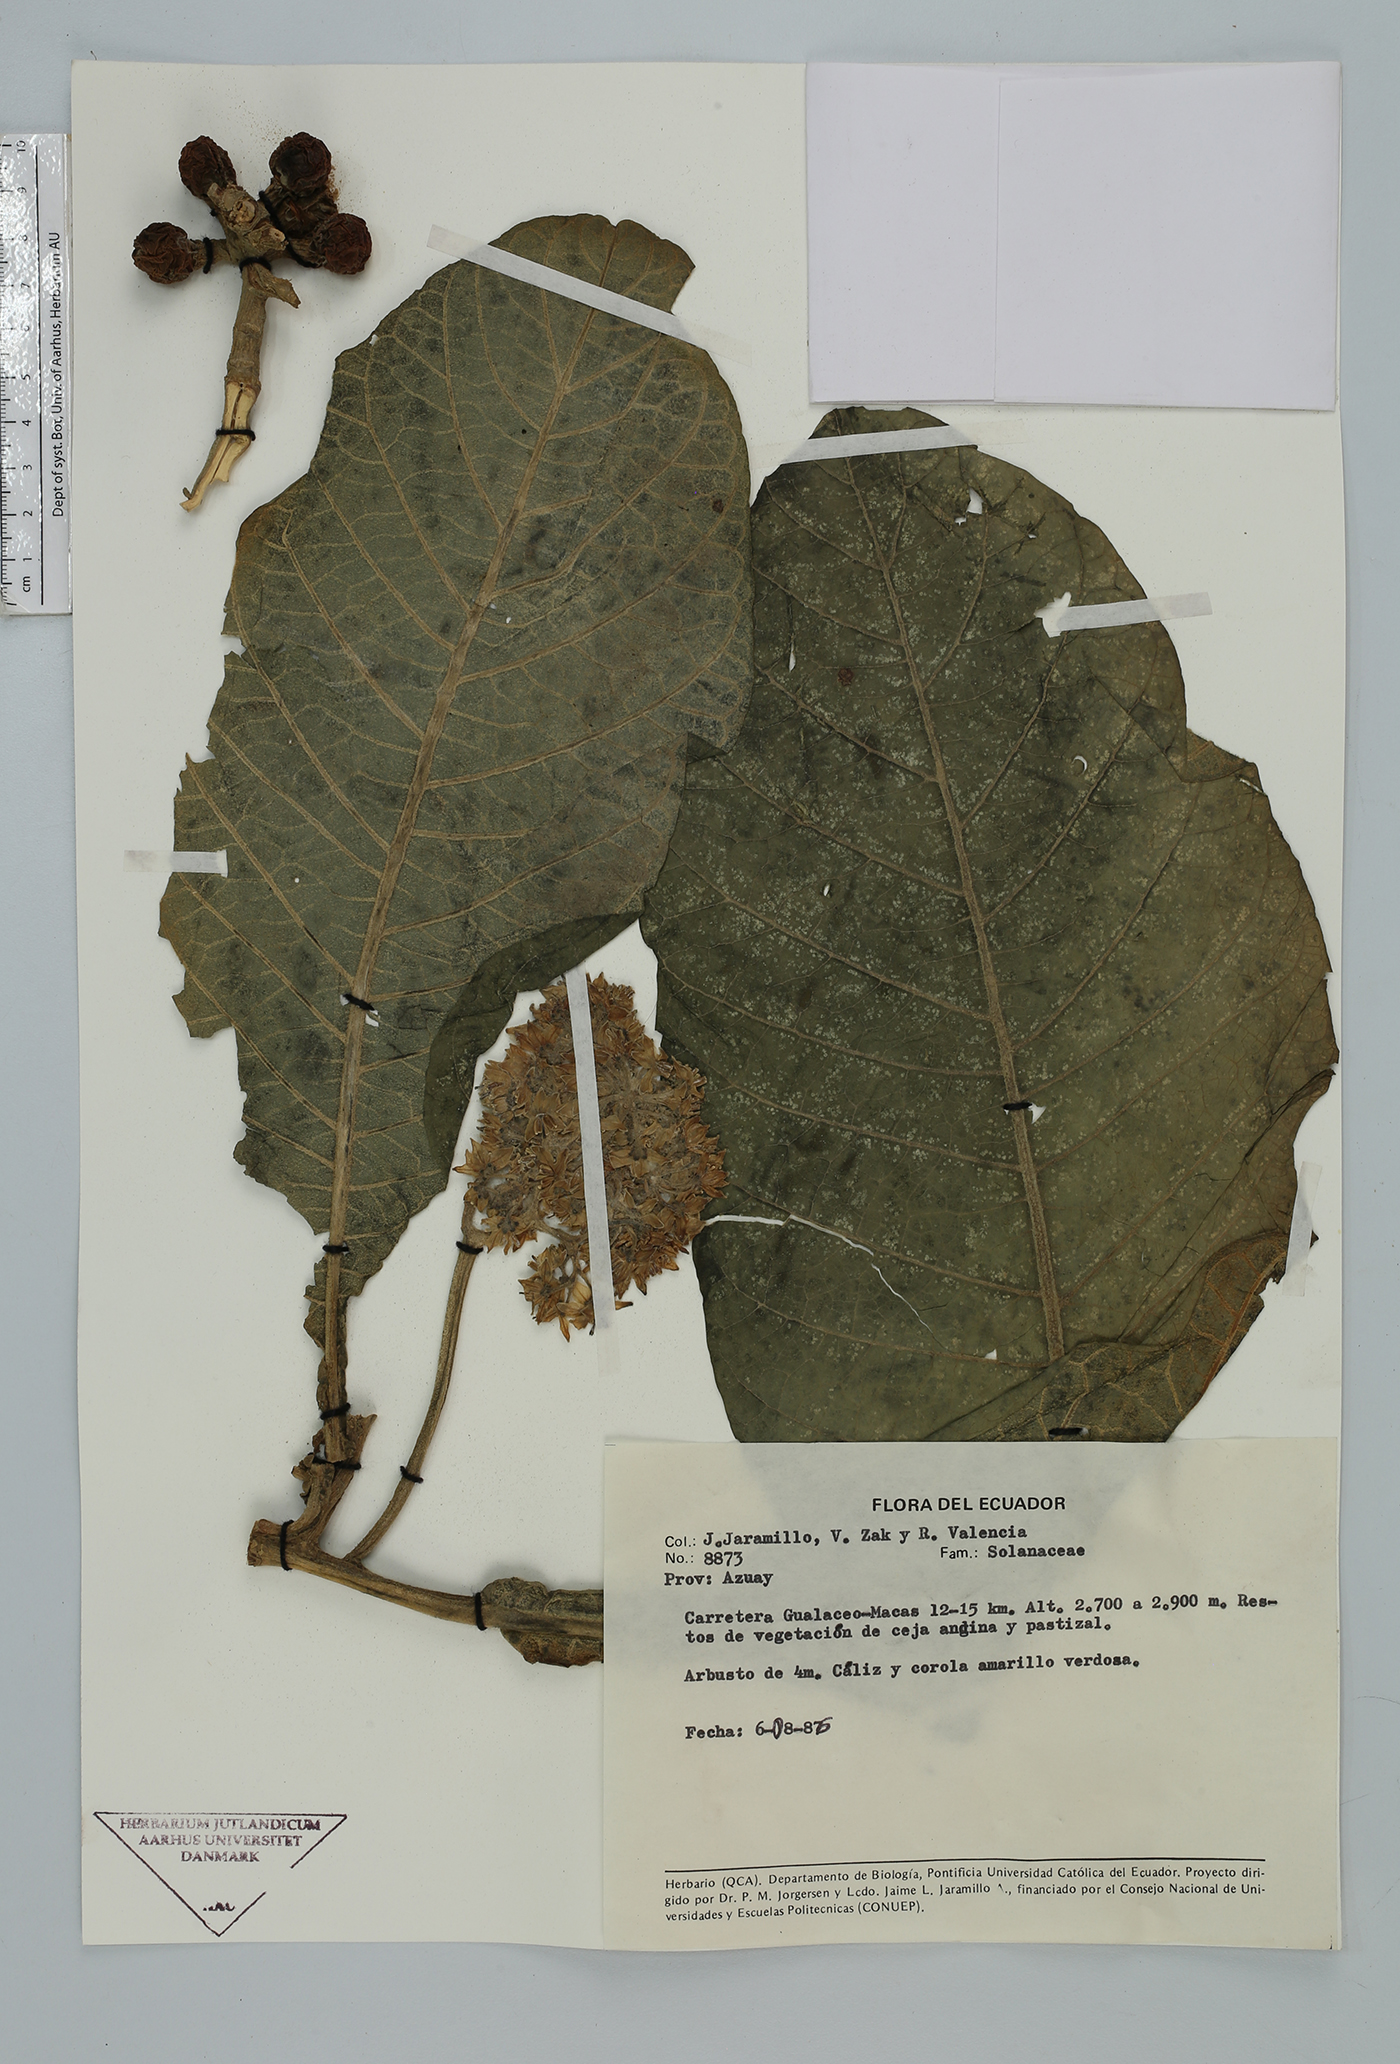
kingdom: Plantae
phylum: Tracheophyta
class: Magnoliopsida
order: Solanales
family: Solanaceae
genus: Solanum
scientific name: Solanum
